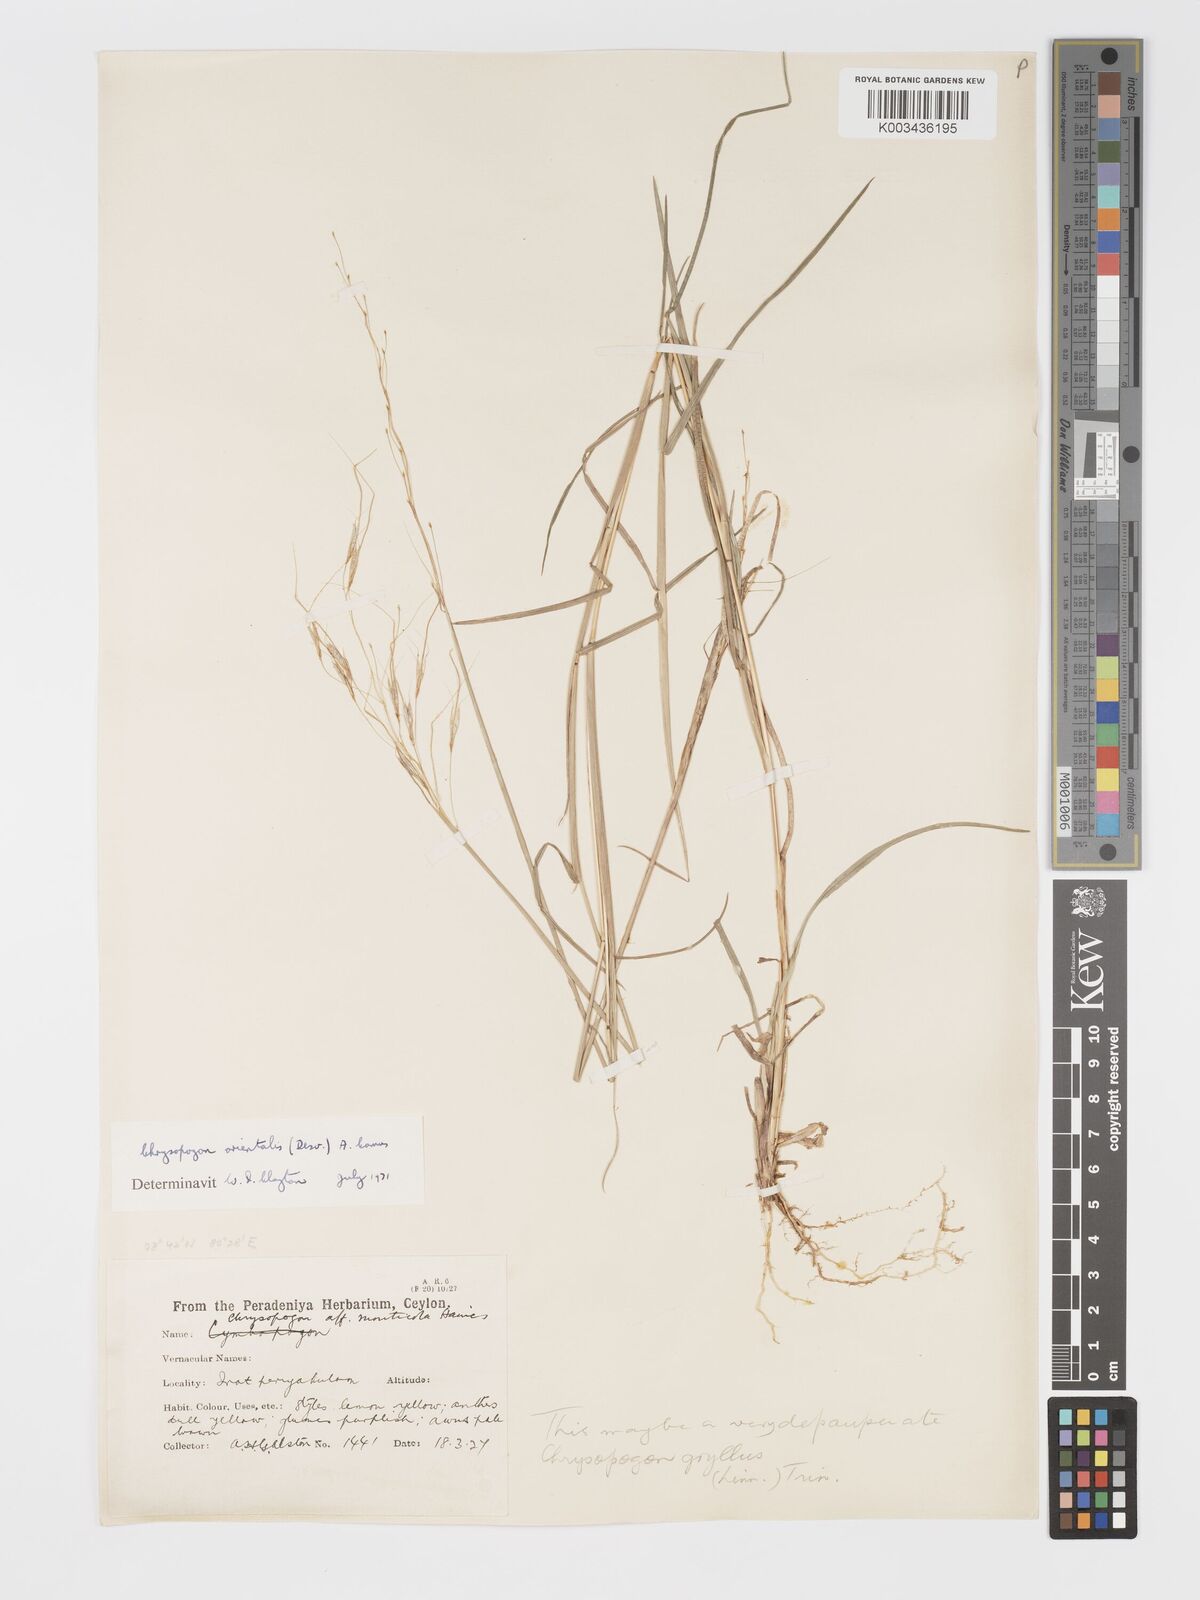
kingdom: Plantae
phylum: Tracheophyta
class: Liliopsida
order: Poales
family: Poaceae
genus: Chrysopogon
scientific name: Chrysopogon orientalis
